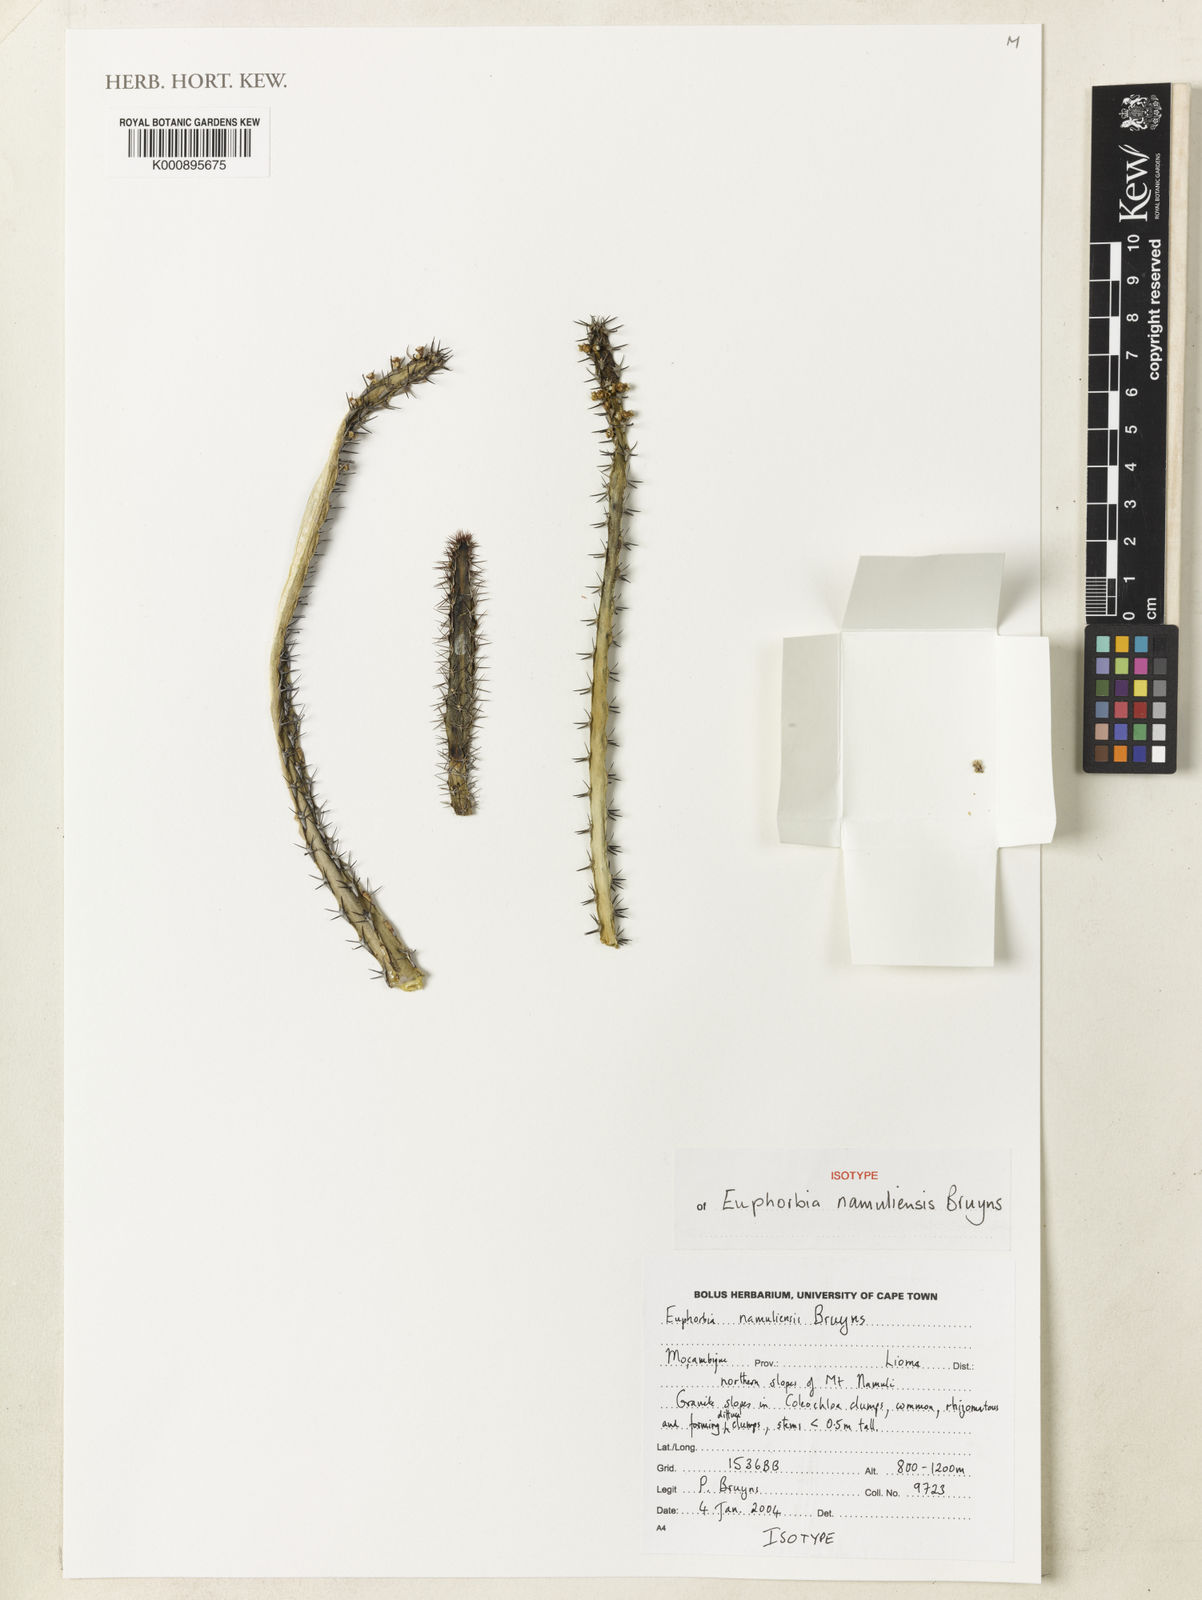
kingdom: Plantae
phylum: Tracheophyta
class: Magnoliopsida
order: Malpighiales
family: Euphorbiaceae
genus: Euphorbia
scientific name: Euphorbia namuliensis
